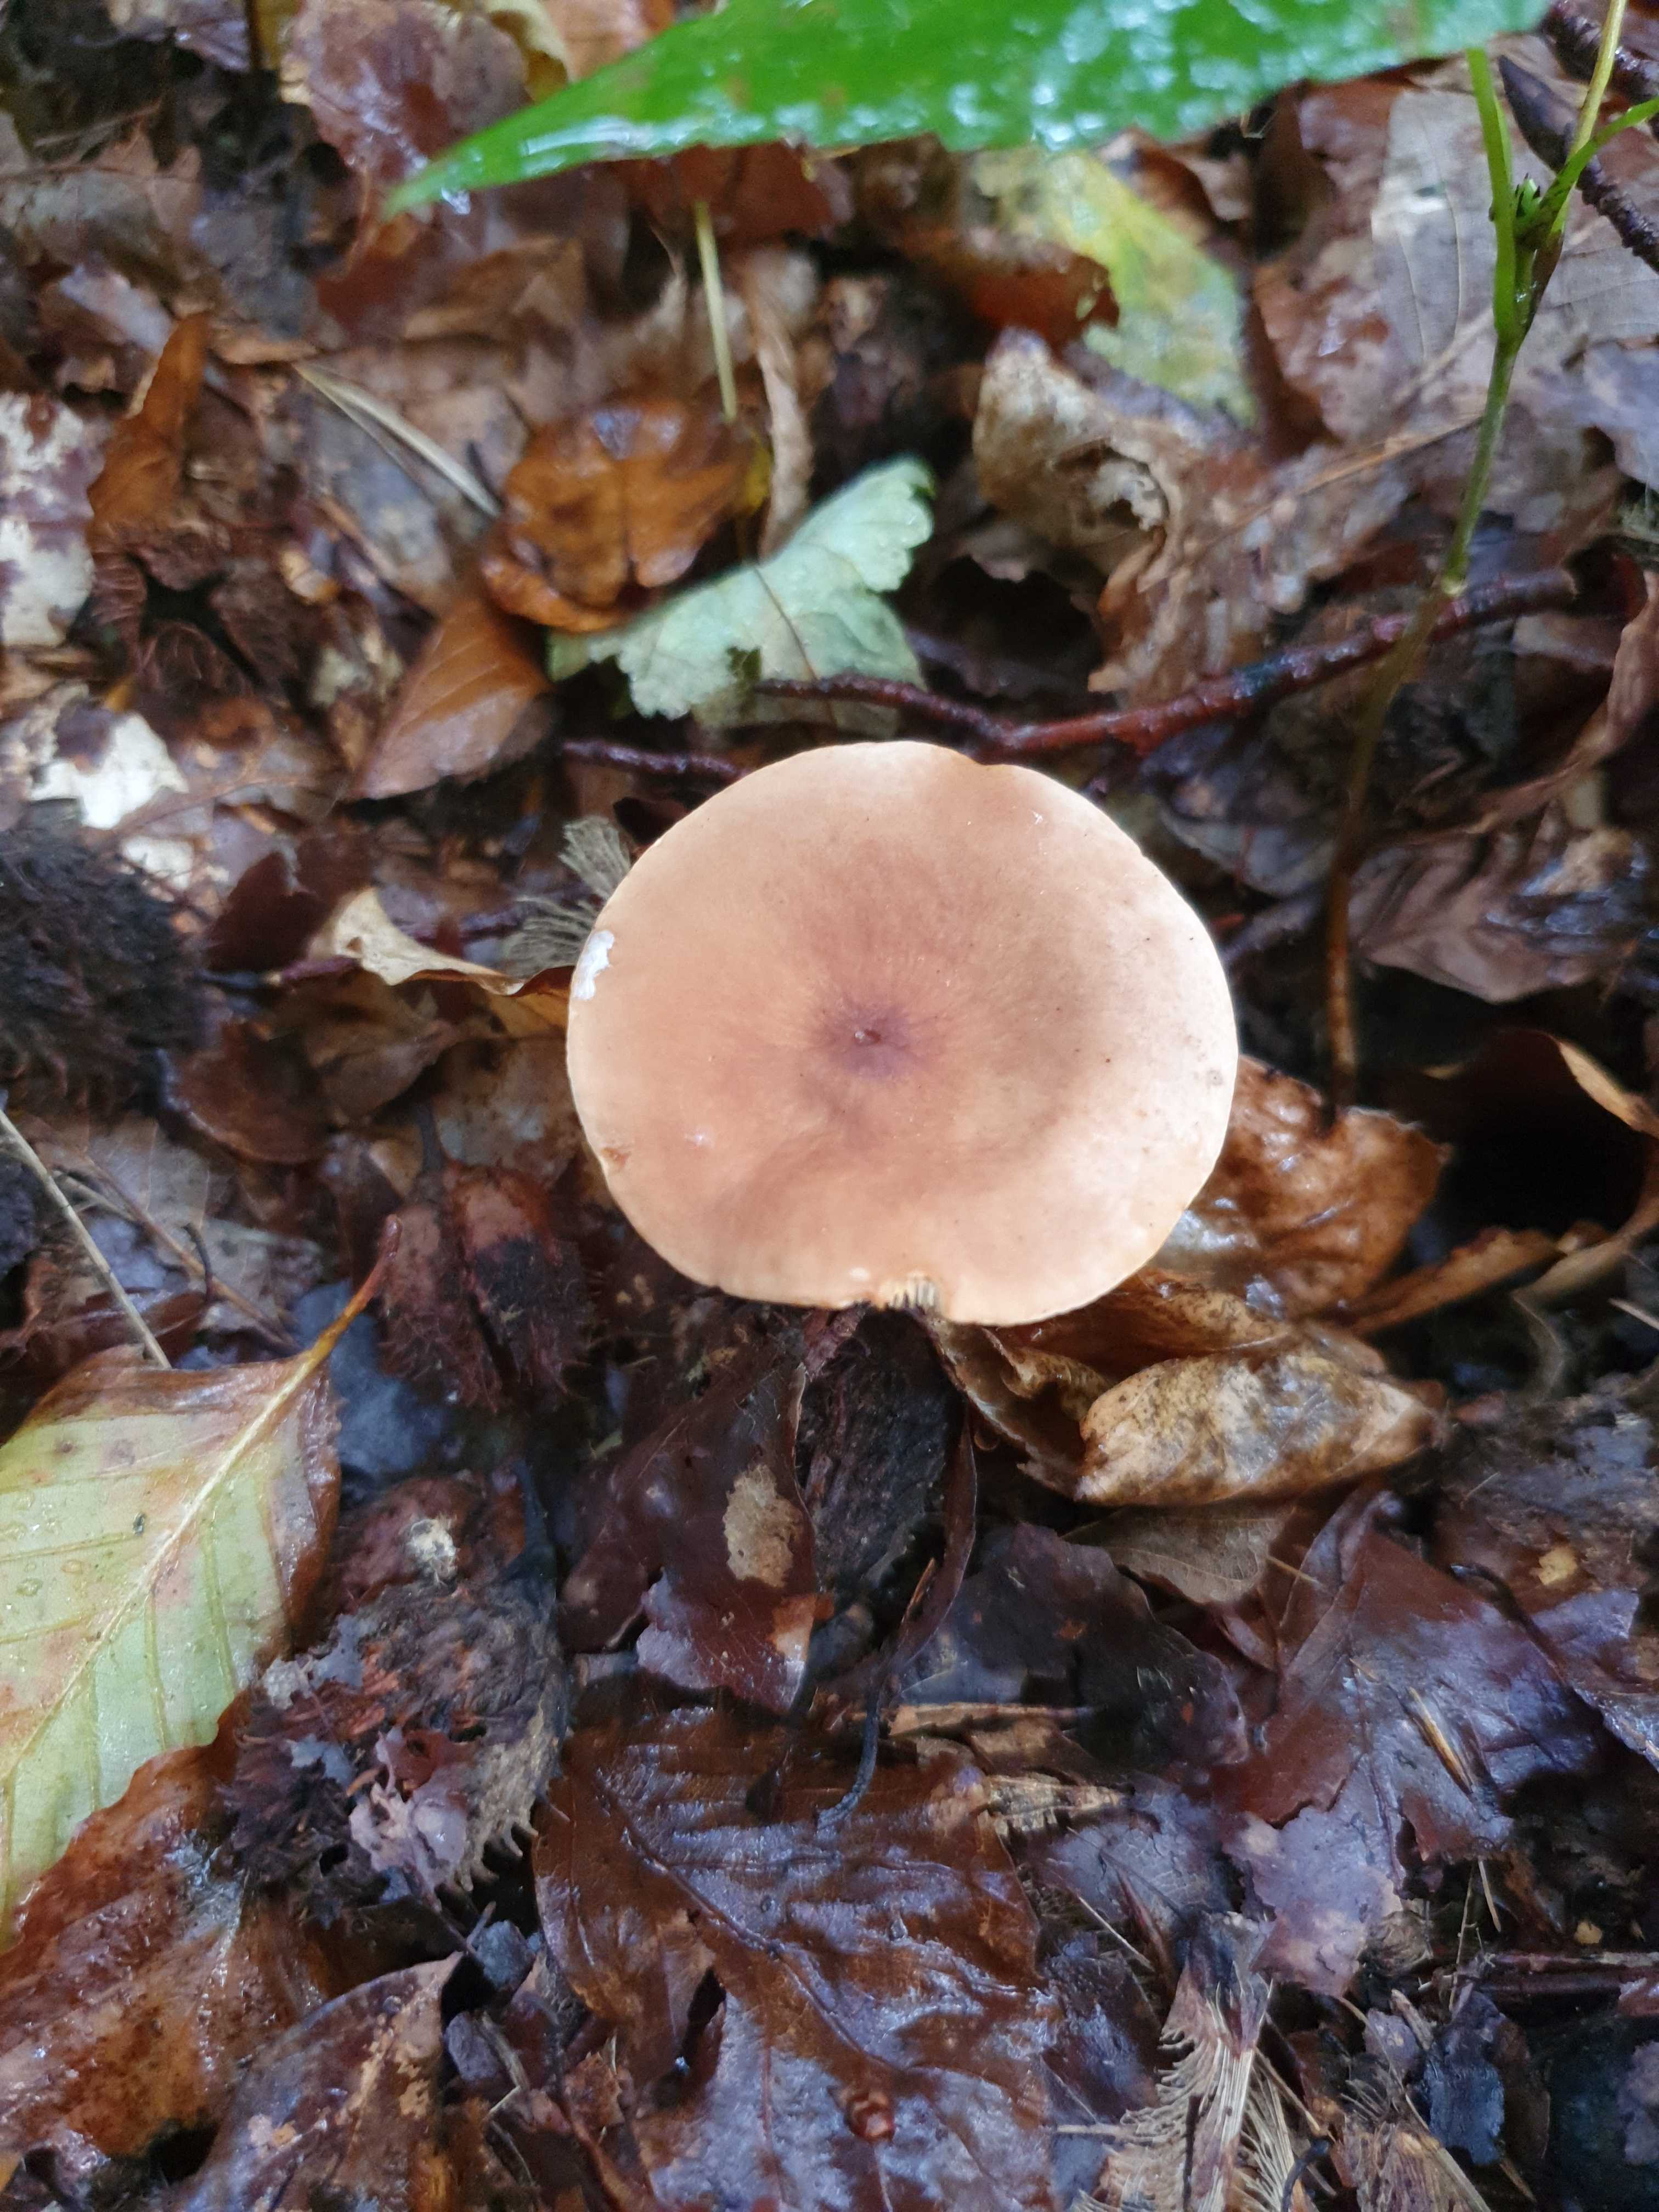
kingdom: Fungi
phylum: Basidiomycota
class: Agaricomycetes
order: Russulales
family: Russulaceae
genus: Lactarius
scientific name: Lactarius subdulcis
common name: sødlig mælkehat
